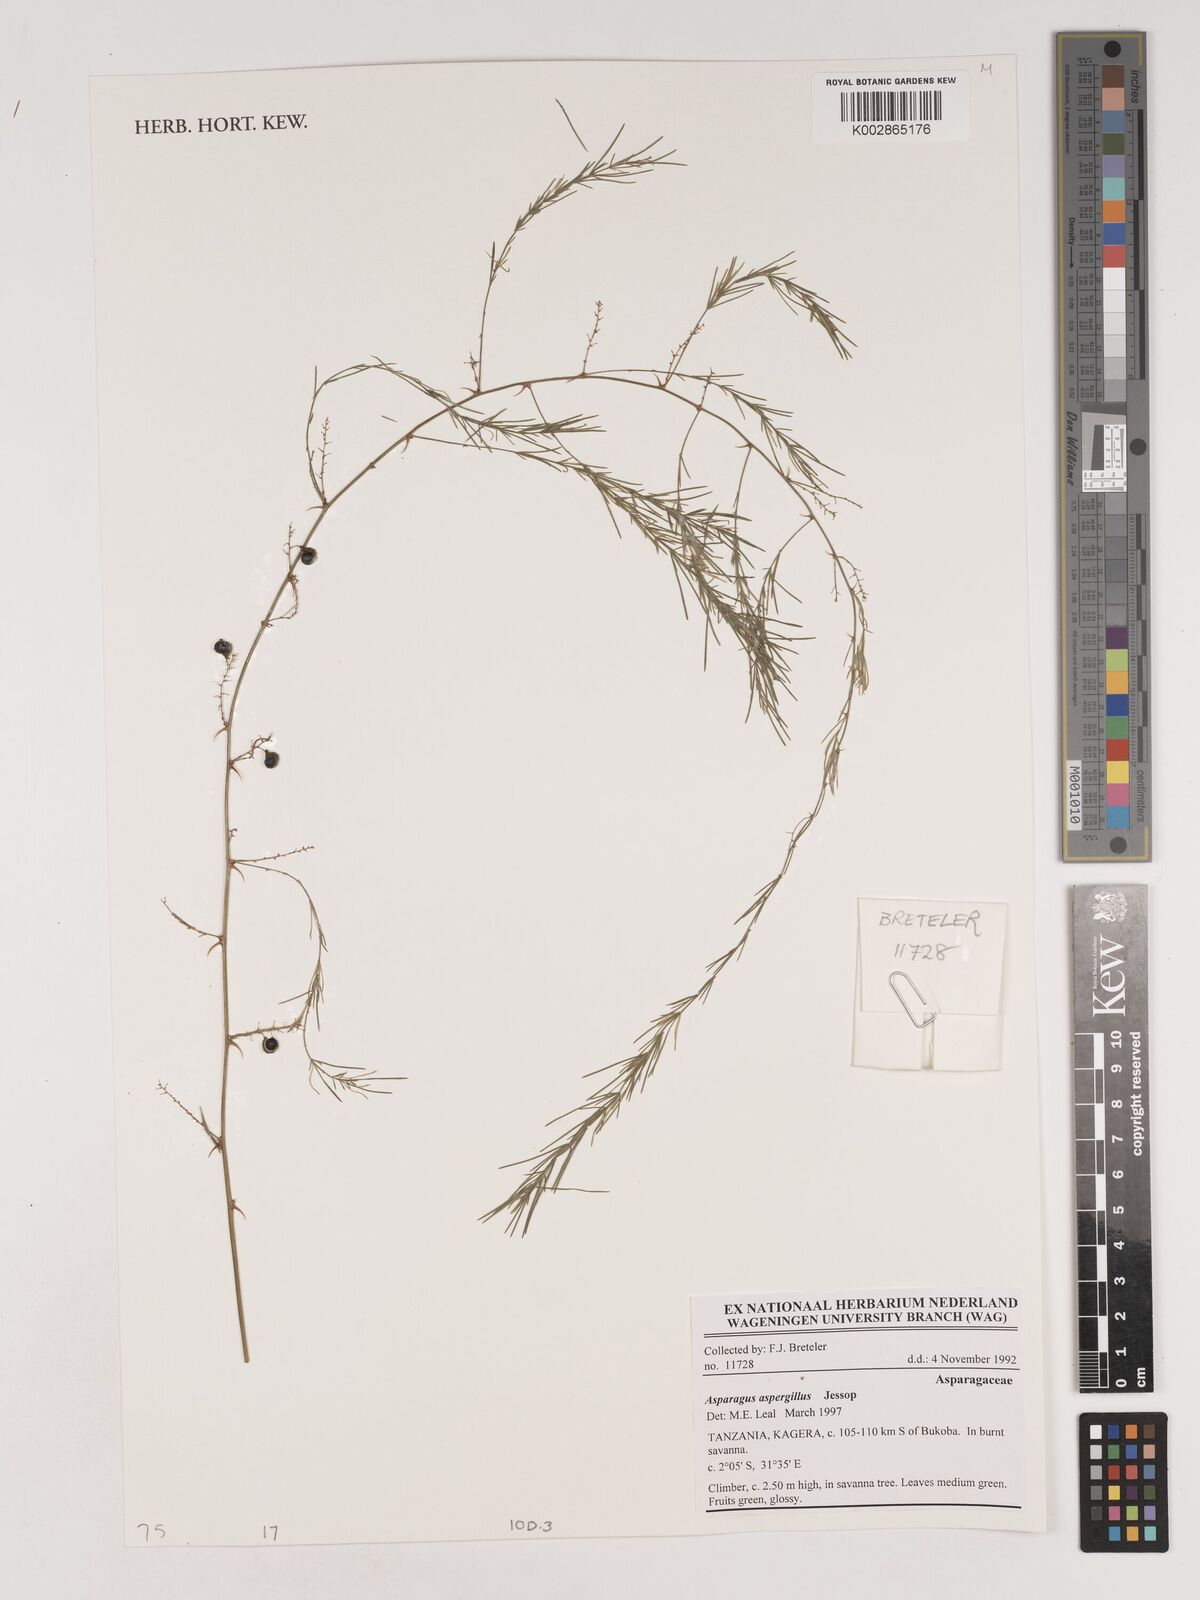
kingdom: Plantae
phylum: Tracheophyta
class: Liliopsida
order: Asparagales
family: Asparagaceae
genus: Asparagus
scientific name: Asparagus aspergillus
